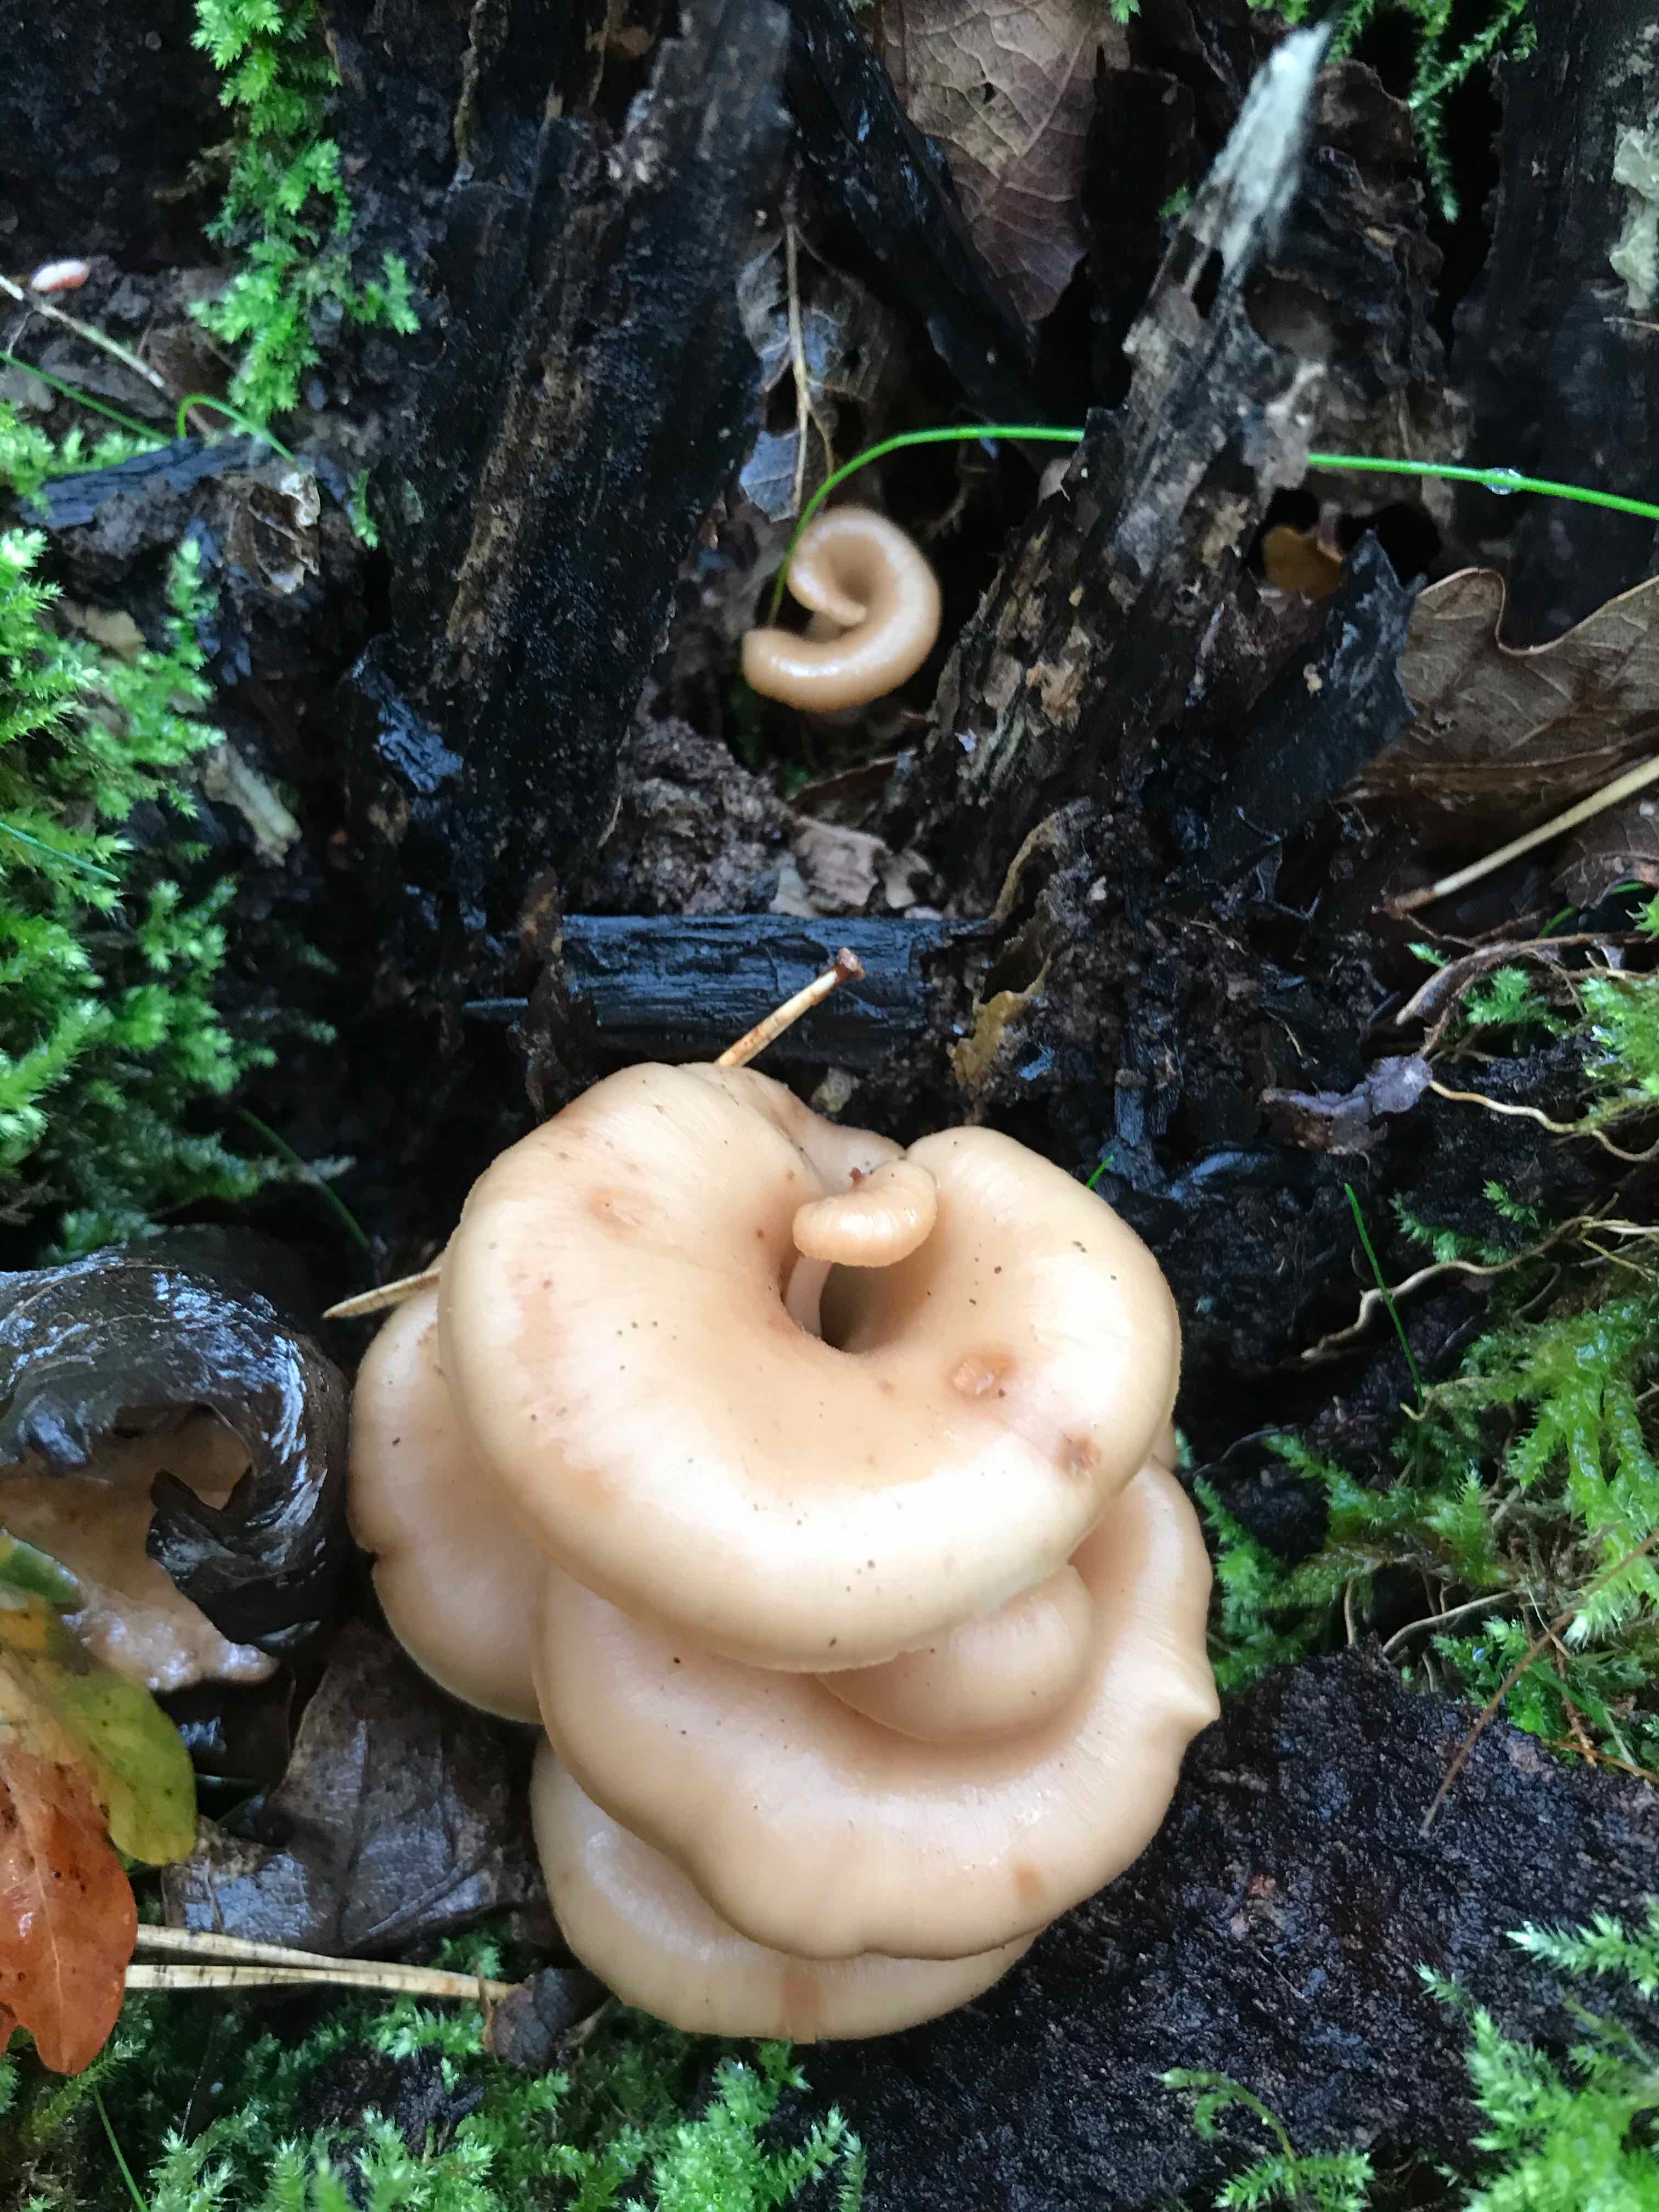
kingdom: Fungi
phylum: Basidiomycota
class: Agaricomycetes
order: Russulales
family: Auriscalpiaceae
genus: Lentinellus
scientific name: Lentinellus cochleatus
